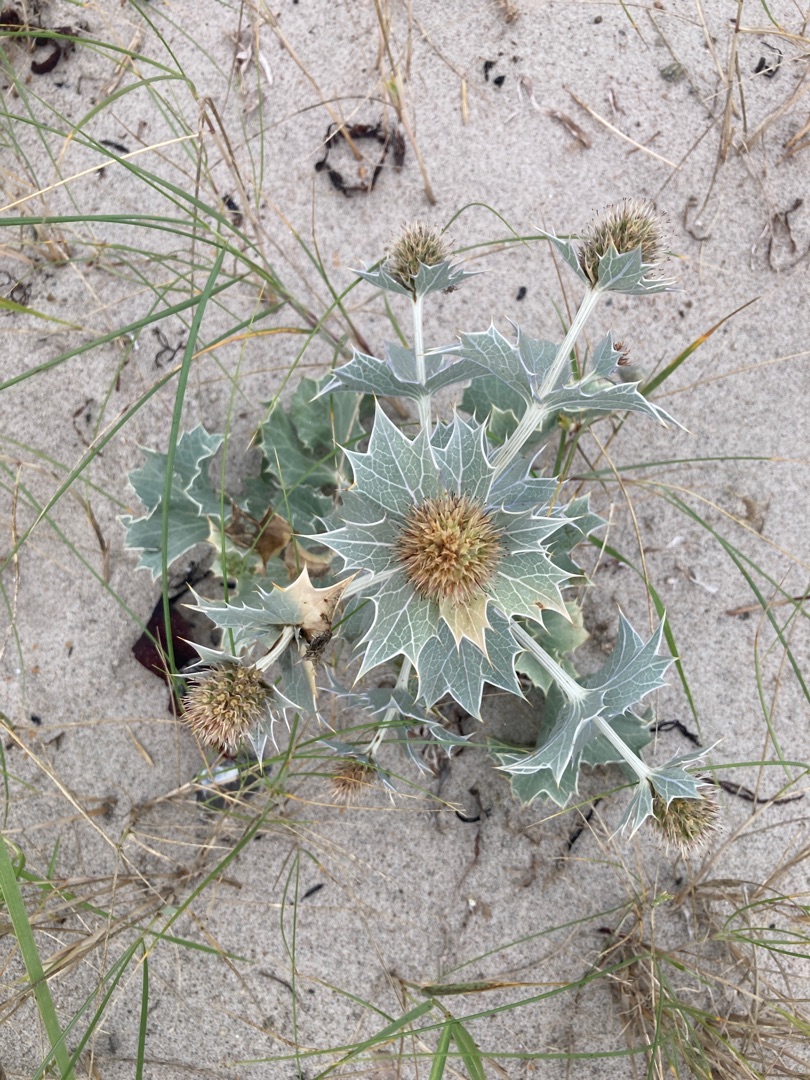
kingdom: Plantae
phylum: Tracheophyta
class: Magnoliopsida
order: Apiales
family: Apiaceae
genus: Eryngium
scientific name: Eryngium maritimum
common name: Strand-mandstro
